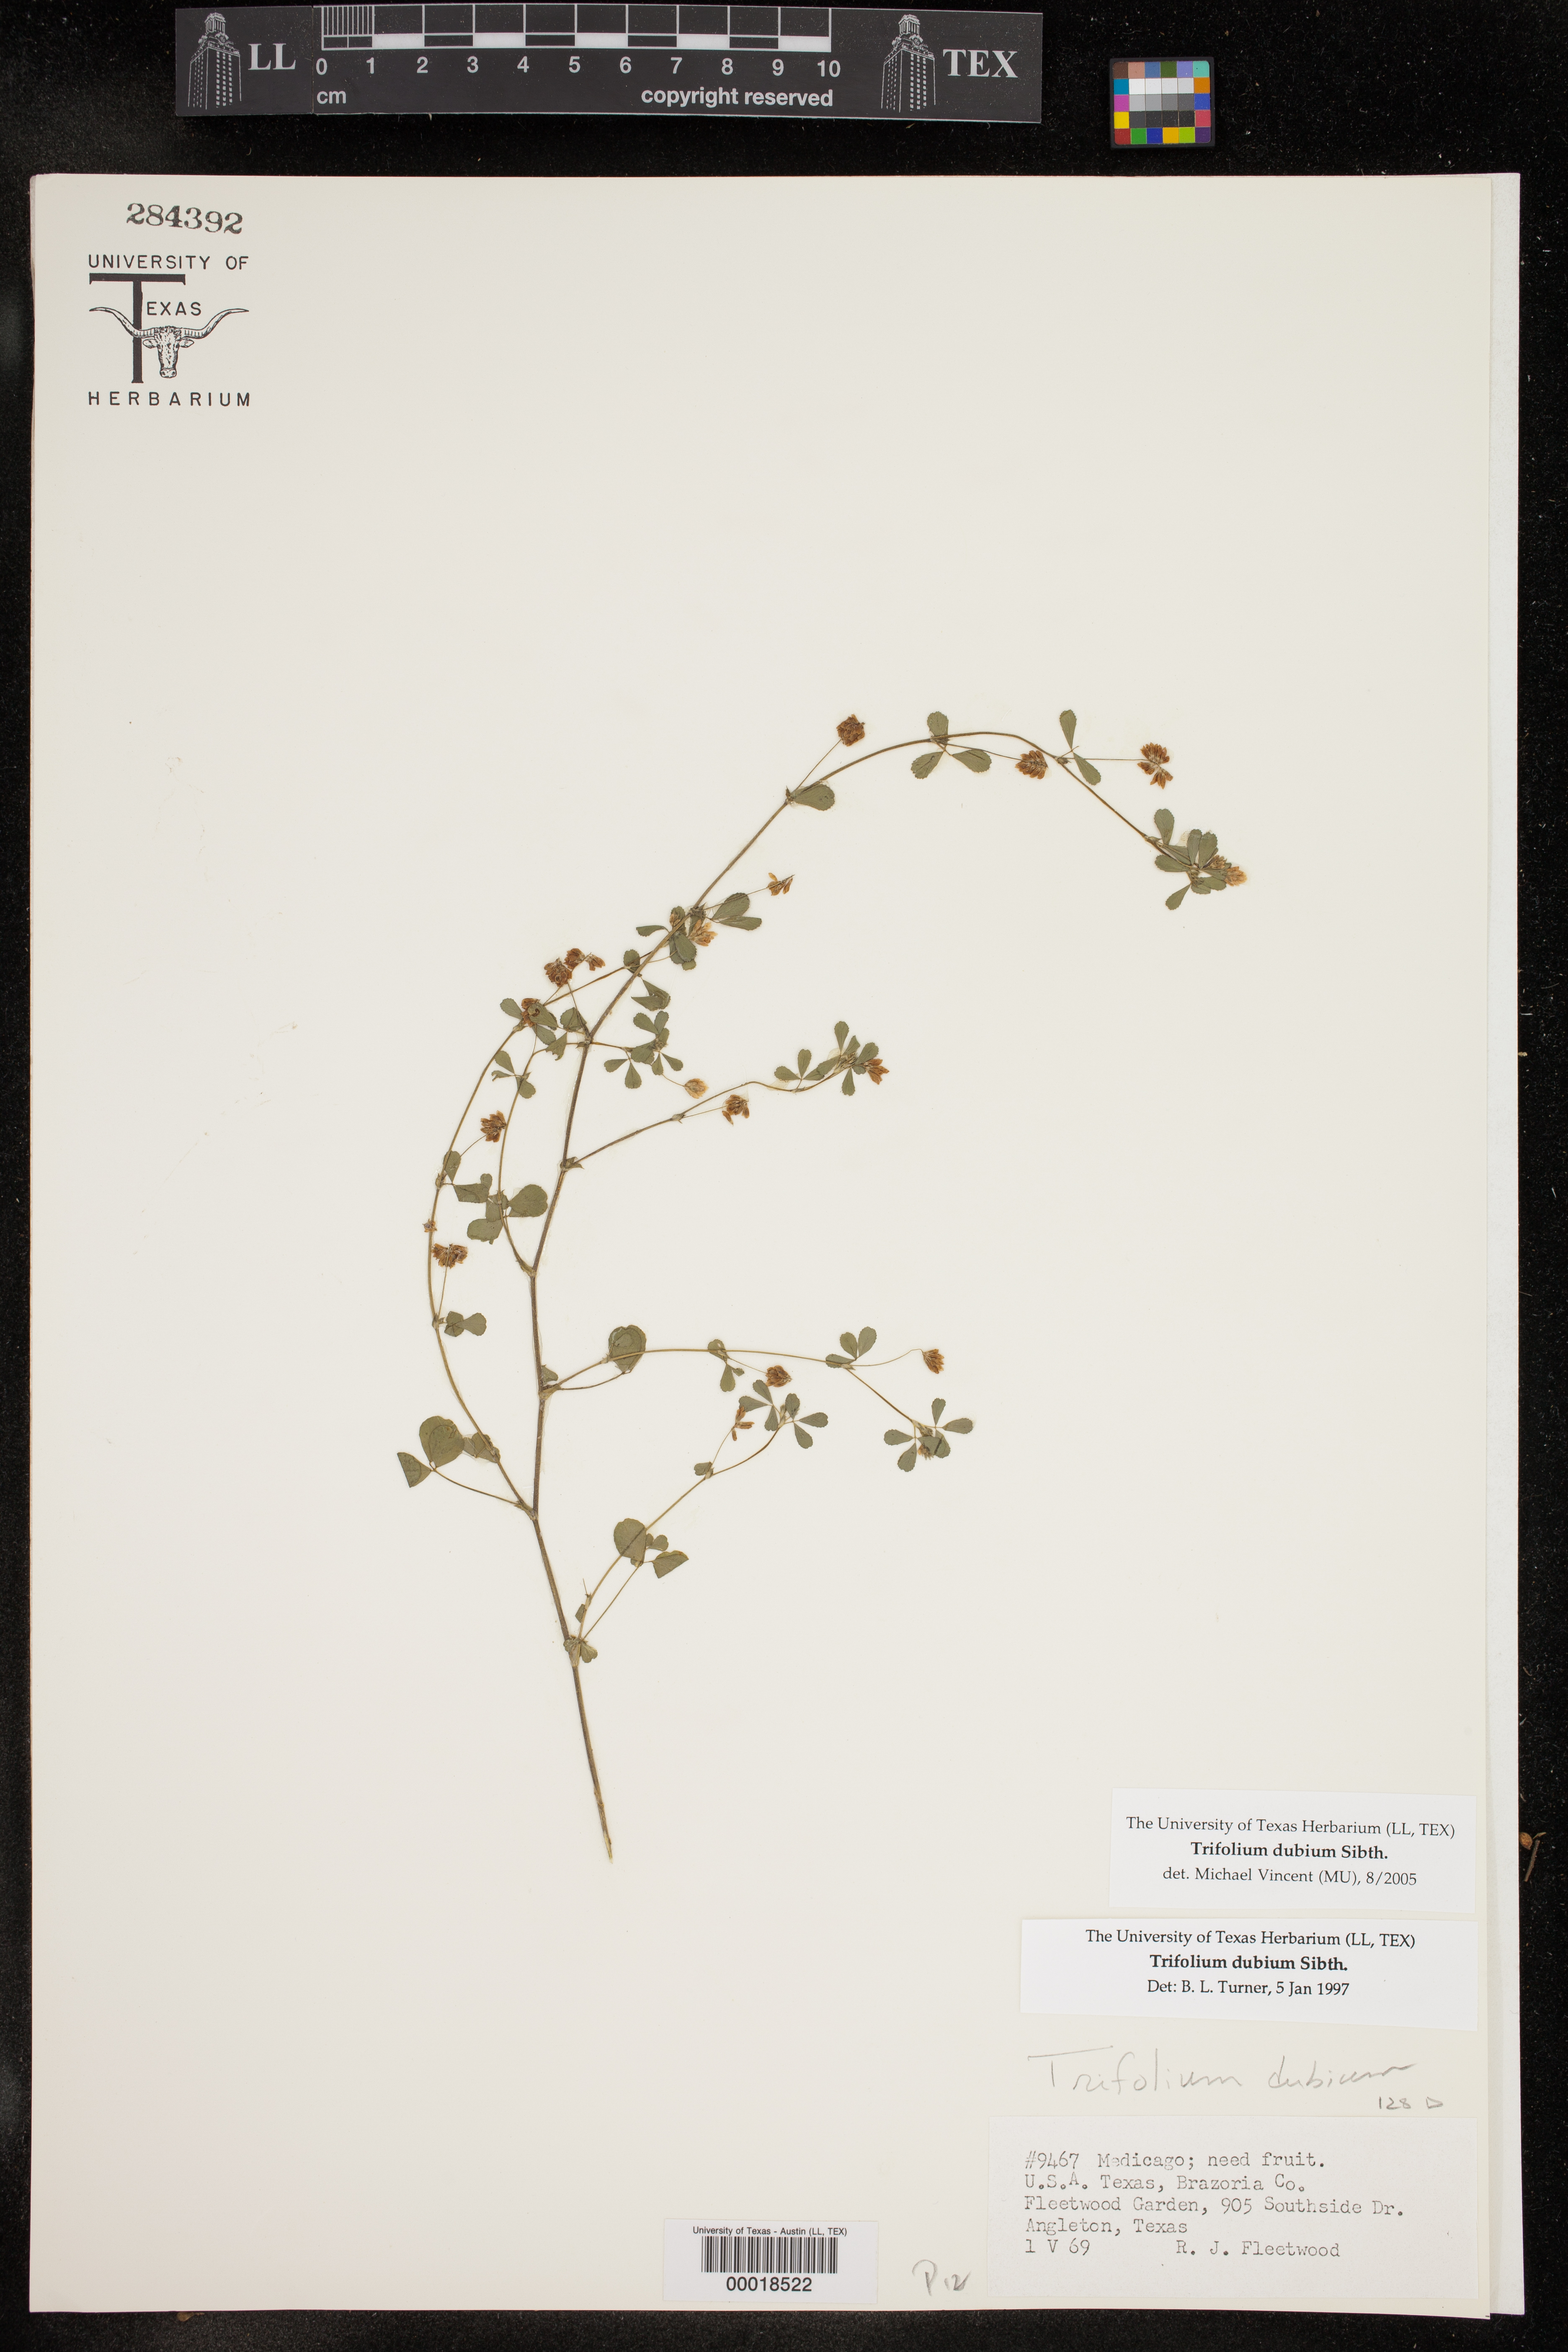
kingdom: Plantae
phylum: Tracheophyta
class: Magnoliopsida
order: Fabales
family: Fabaceae
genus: Trifolium
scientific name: Trifolium dubium
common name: Suckling clover
